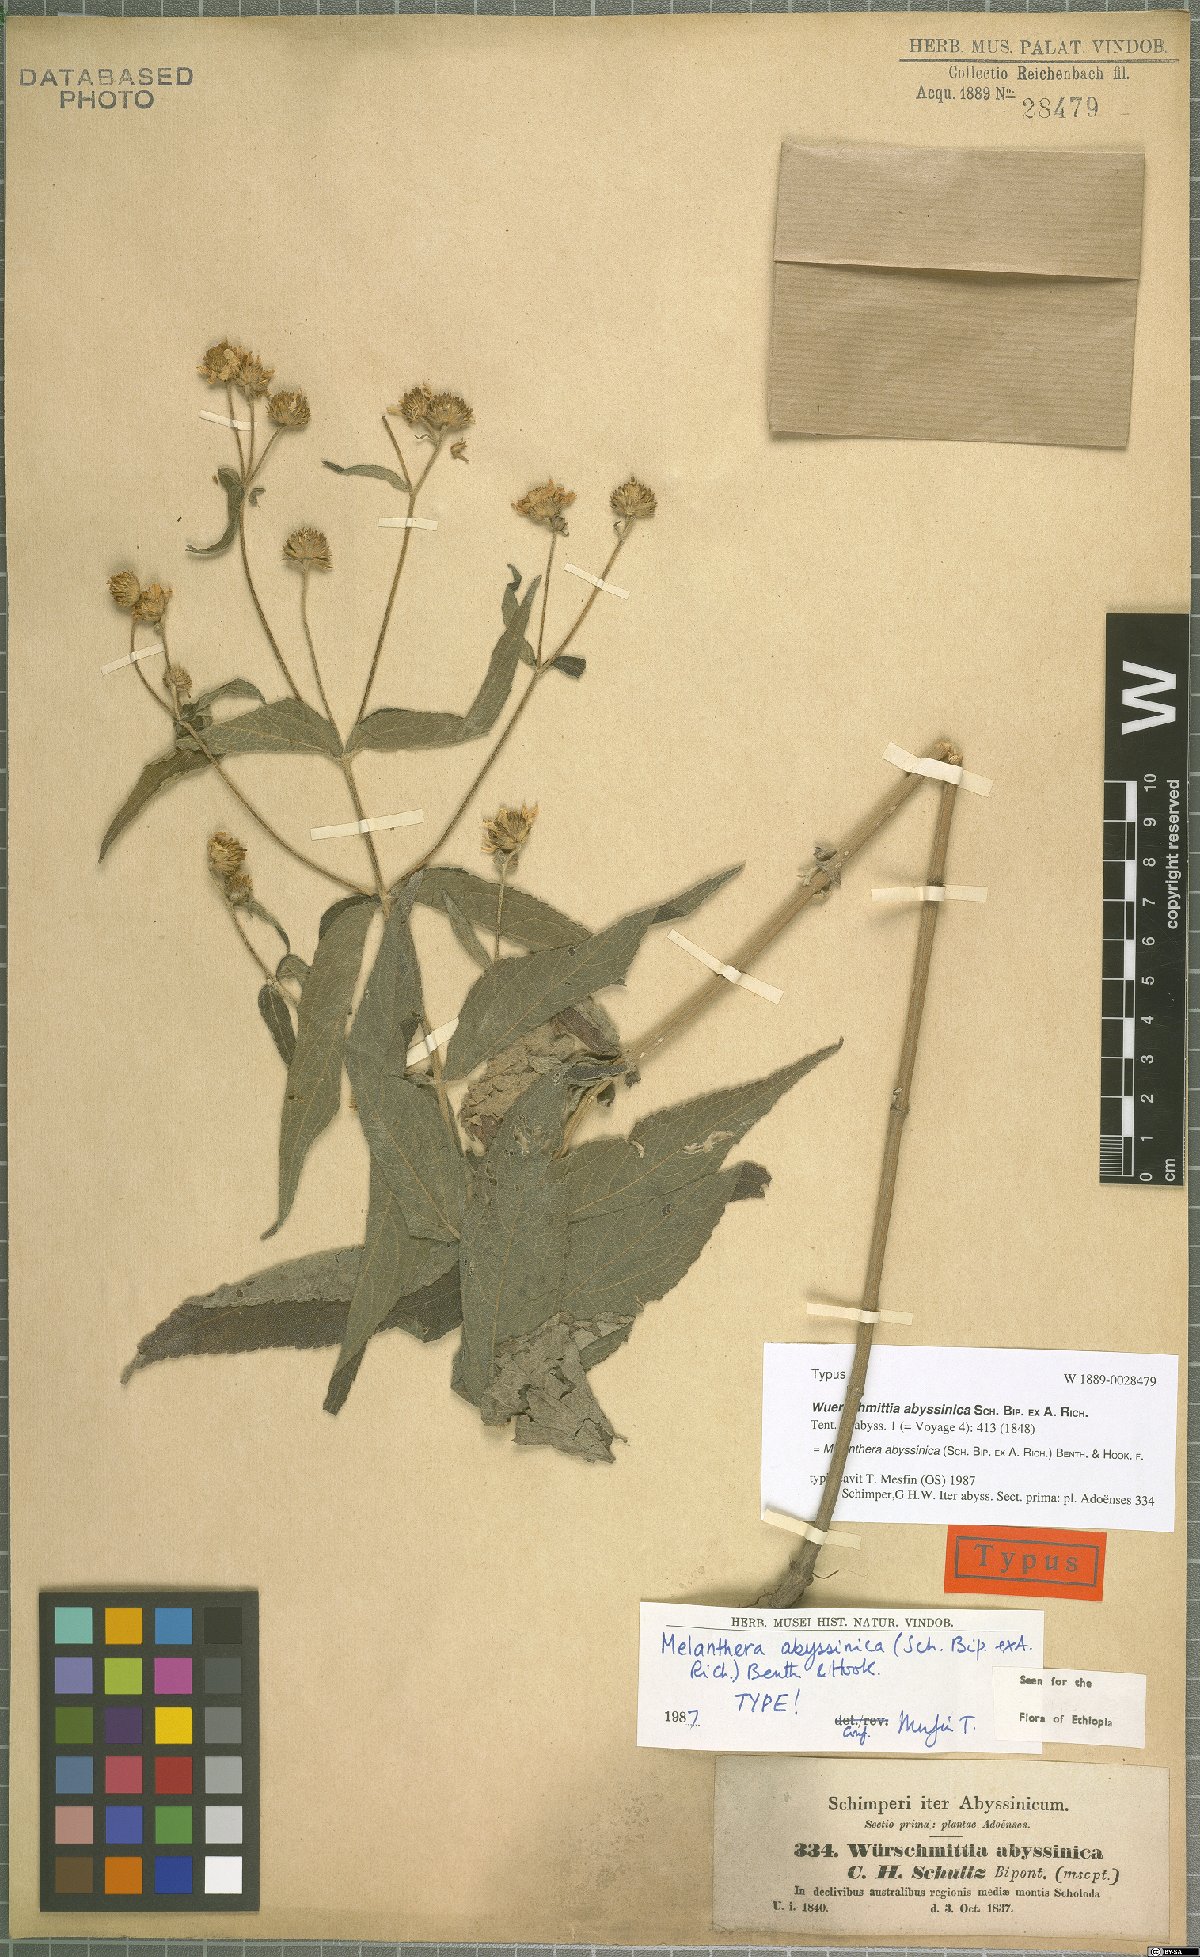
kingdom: Plantae
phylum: Tracheophyta
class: Magnoliopsida
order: Asterales
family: Asteraceae
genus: Lipotriche
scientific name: Lipotriche abyssinica
